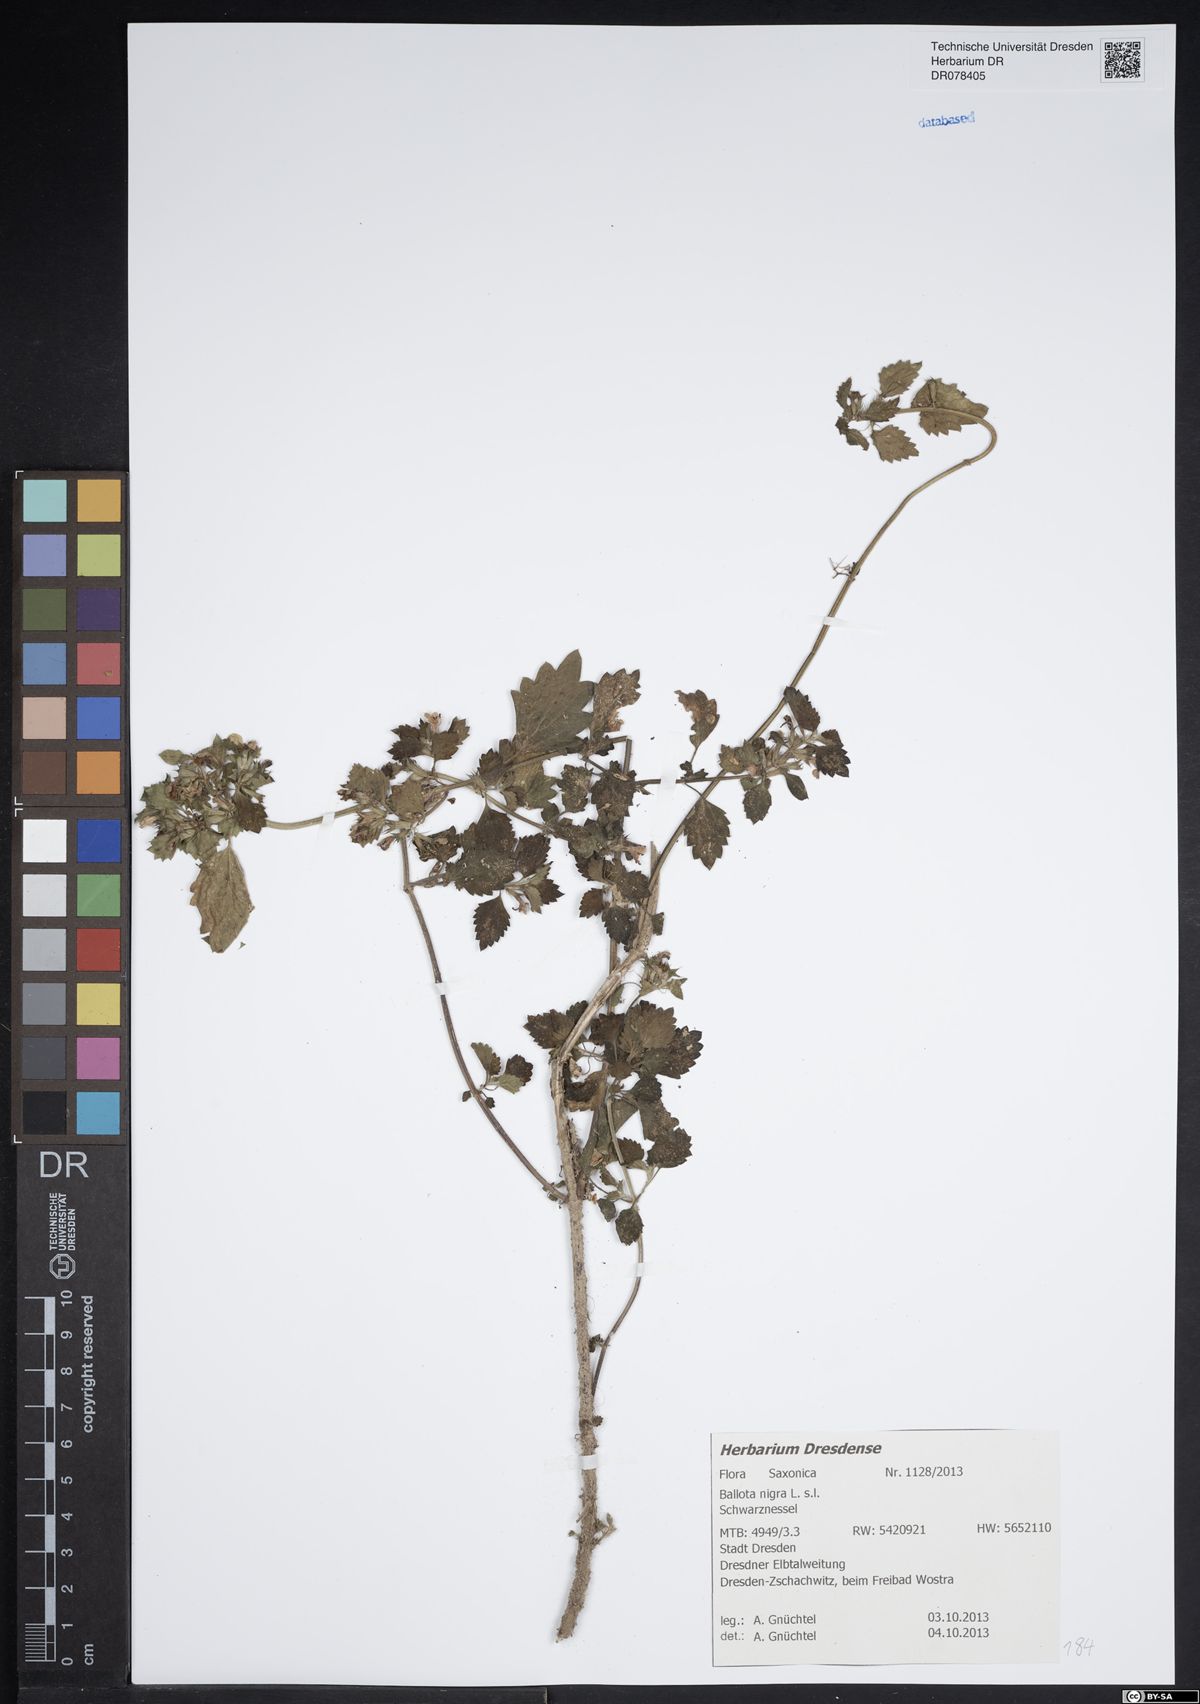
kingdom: Plantae
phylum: Tracheophyta
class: Magnoliopsida
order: Lamiales
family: Lamiaceae
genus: Ballota
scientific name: Ballota nigra
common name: Black horehound
